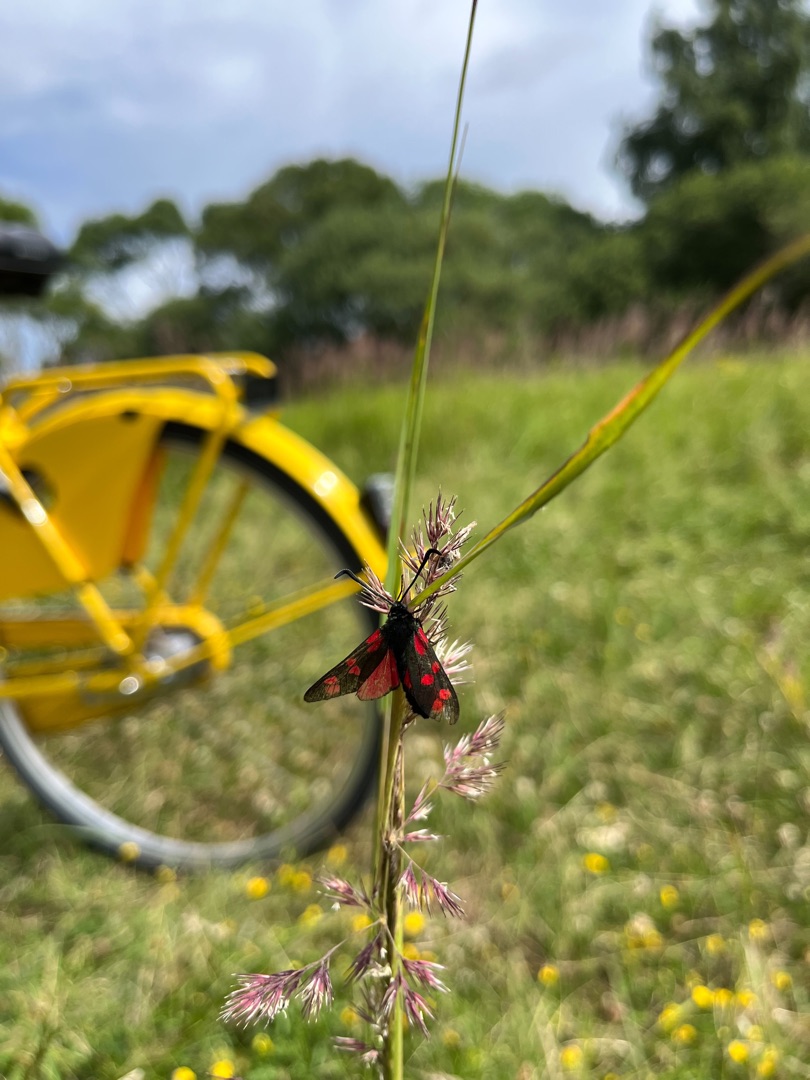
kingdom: Animalia
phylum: Arthropoda
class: Insecta
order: Lepidoptera
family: Zygaenidae
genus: Zygaena
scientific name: Zygaena filipendulae
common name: Seksplettet køllesværmer
